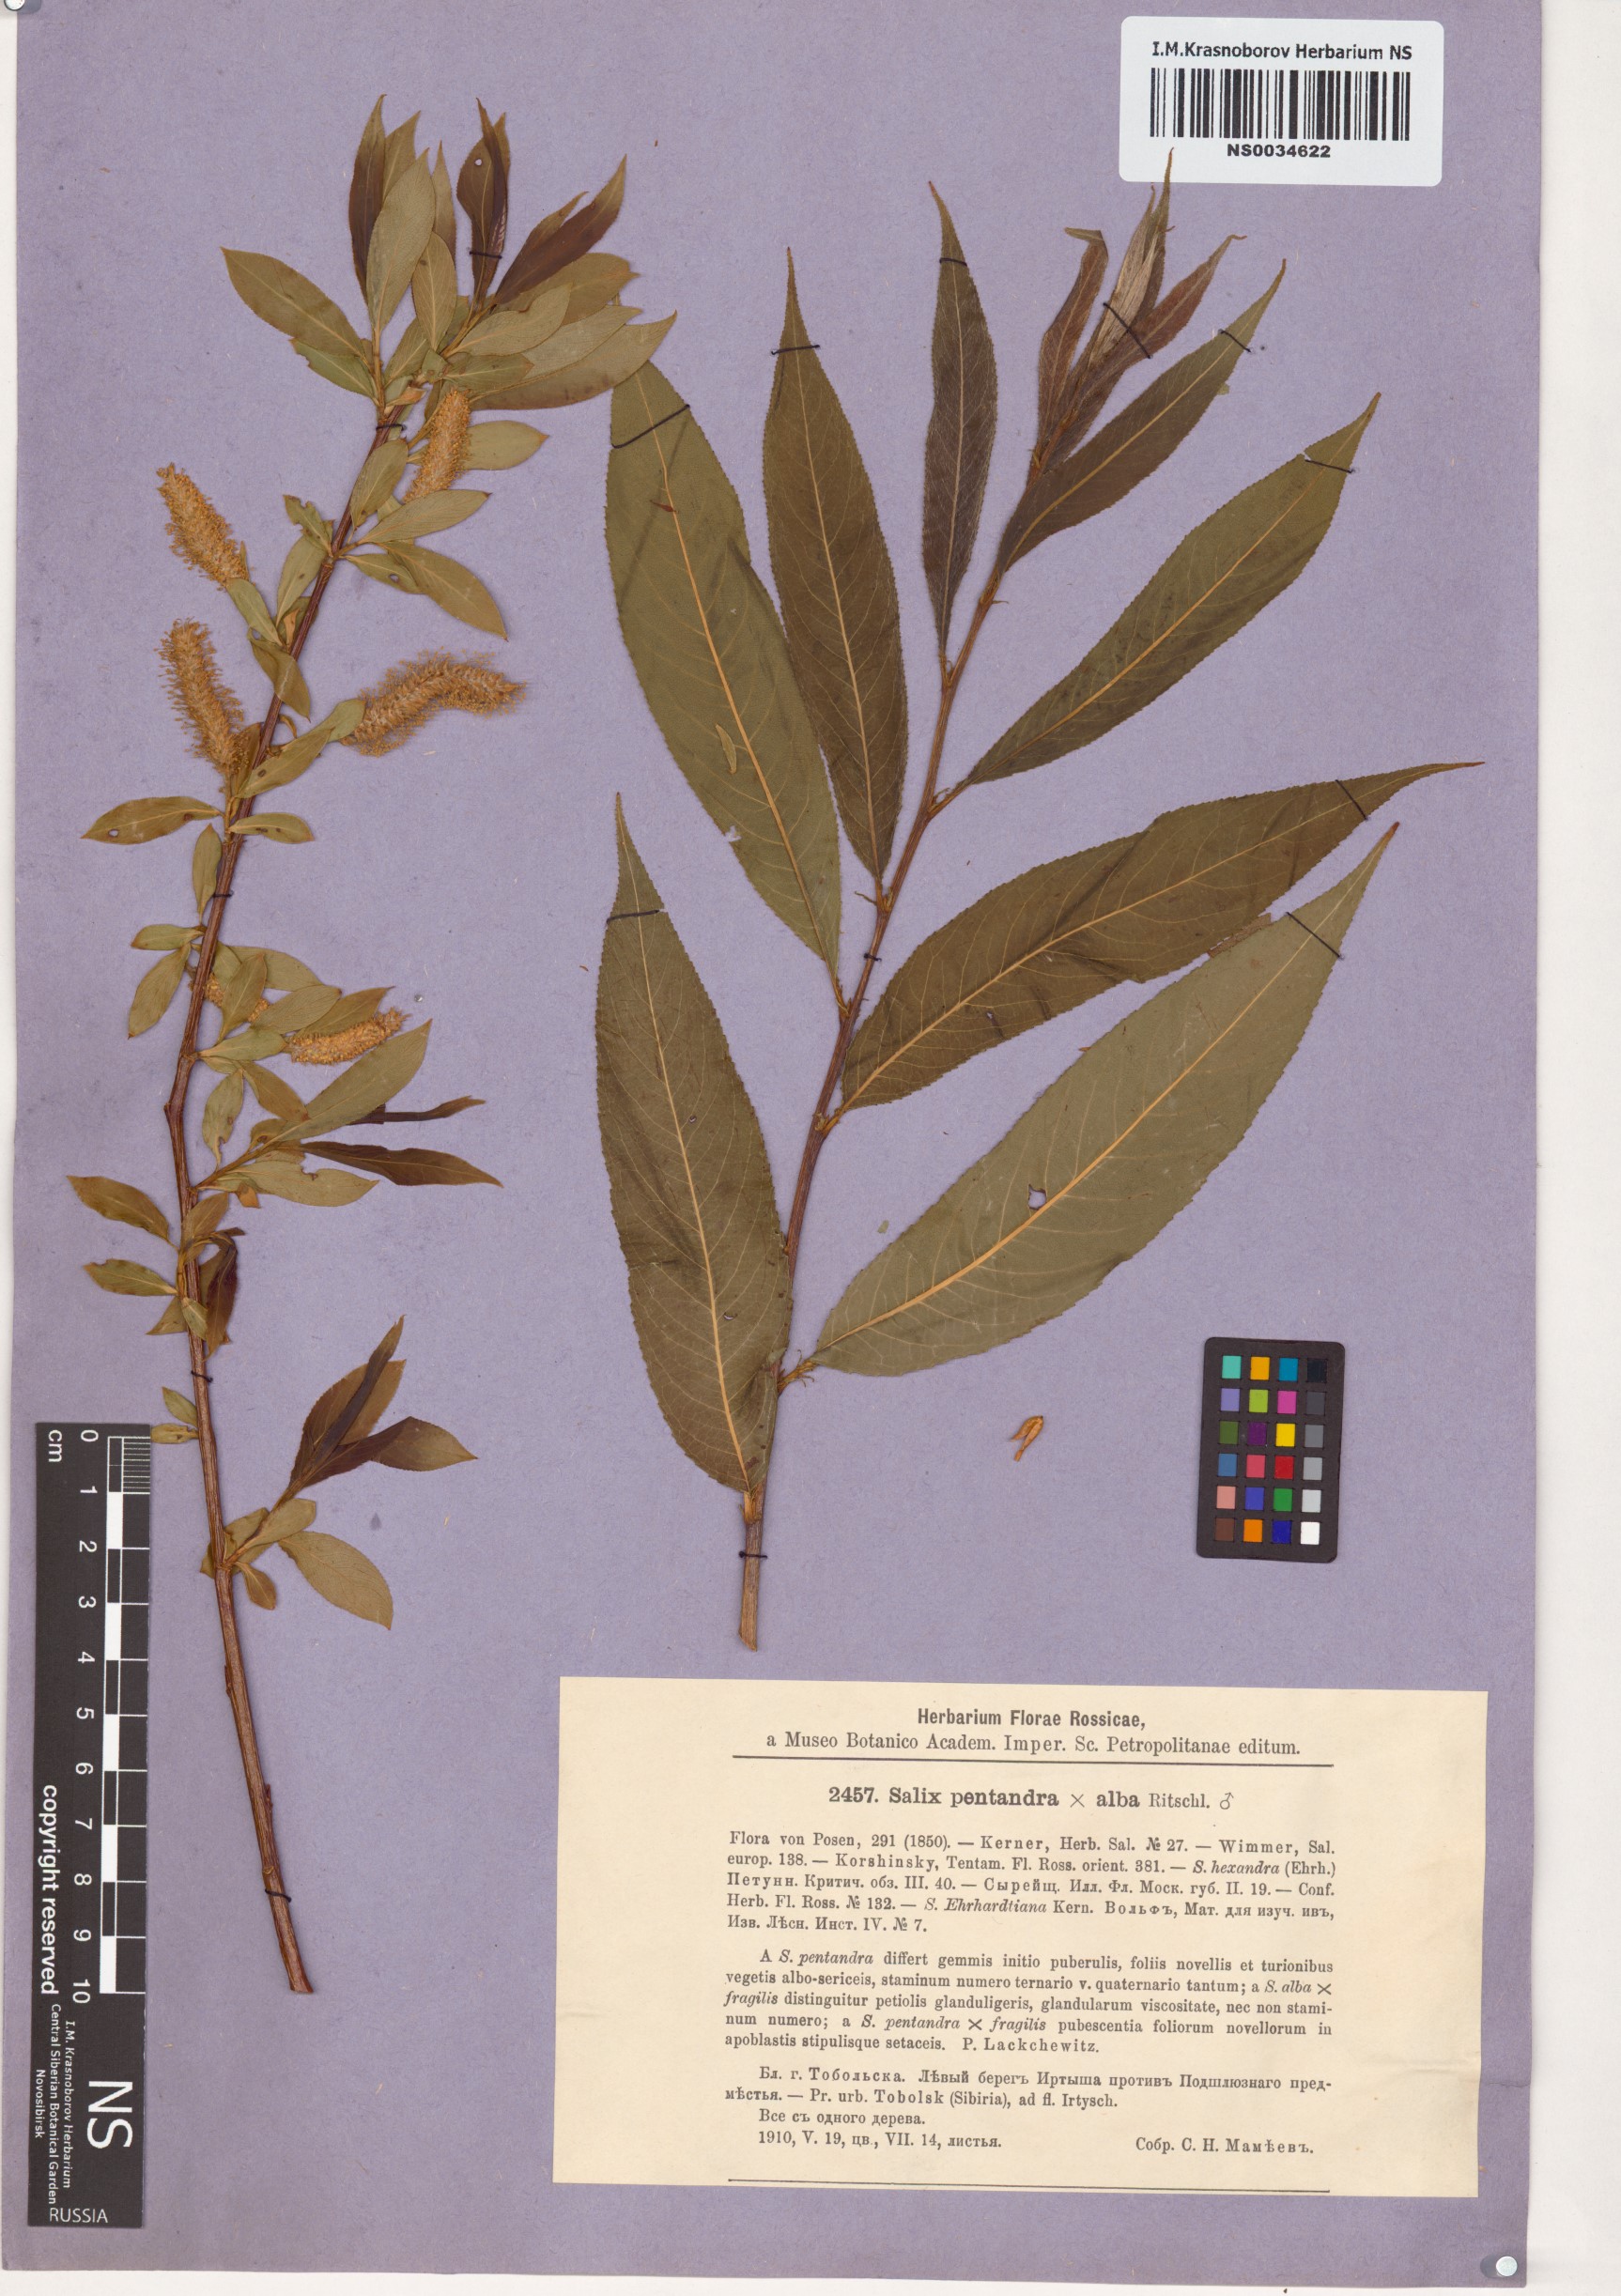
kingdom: Plantae
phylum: Tracheophyta
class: Magnoliopsida
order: Malpighiales
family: Salicaceae
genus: Salix
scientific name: Salix pentandra
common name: Bay willow
